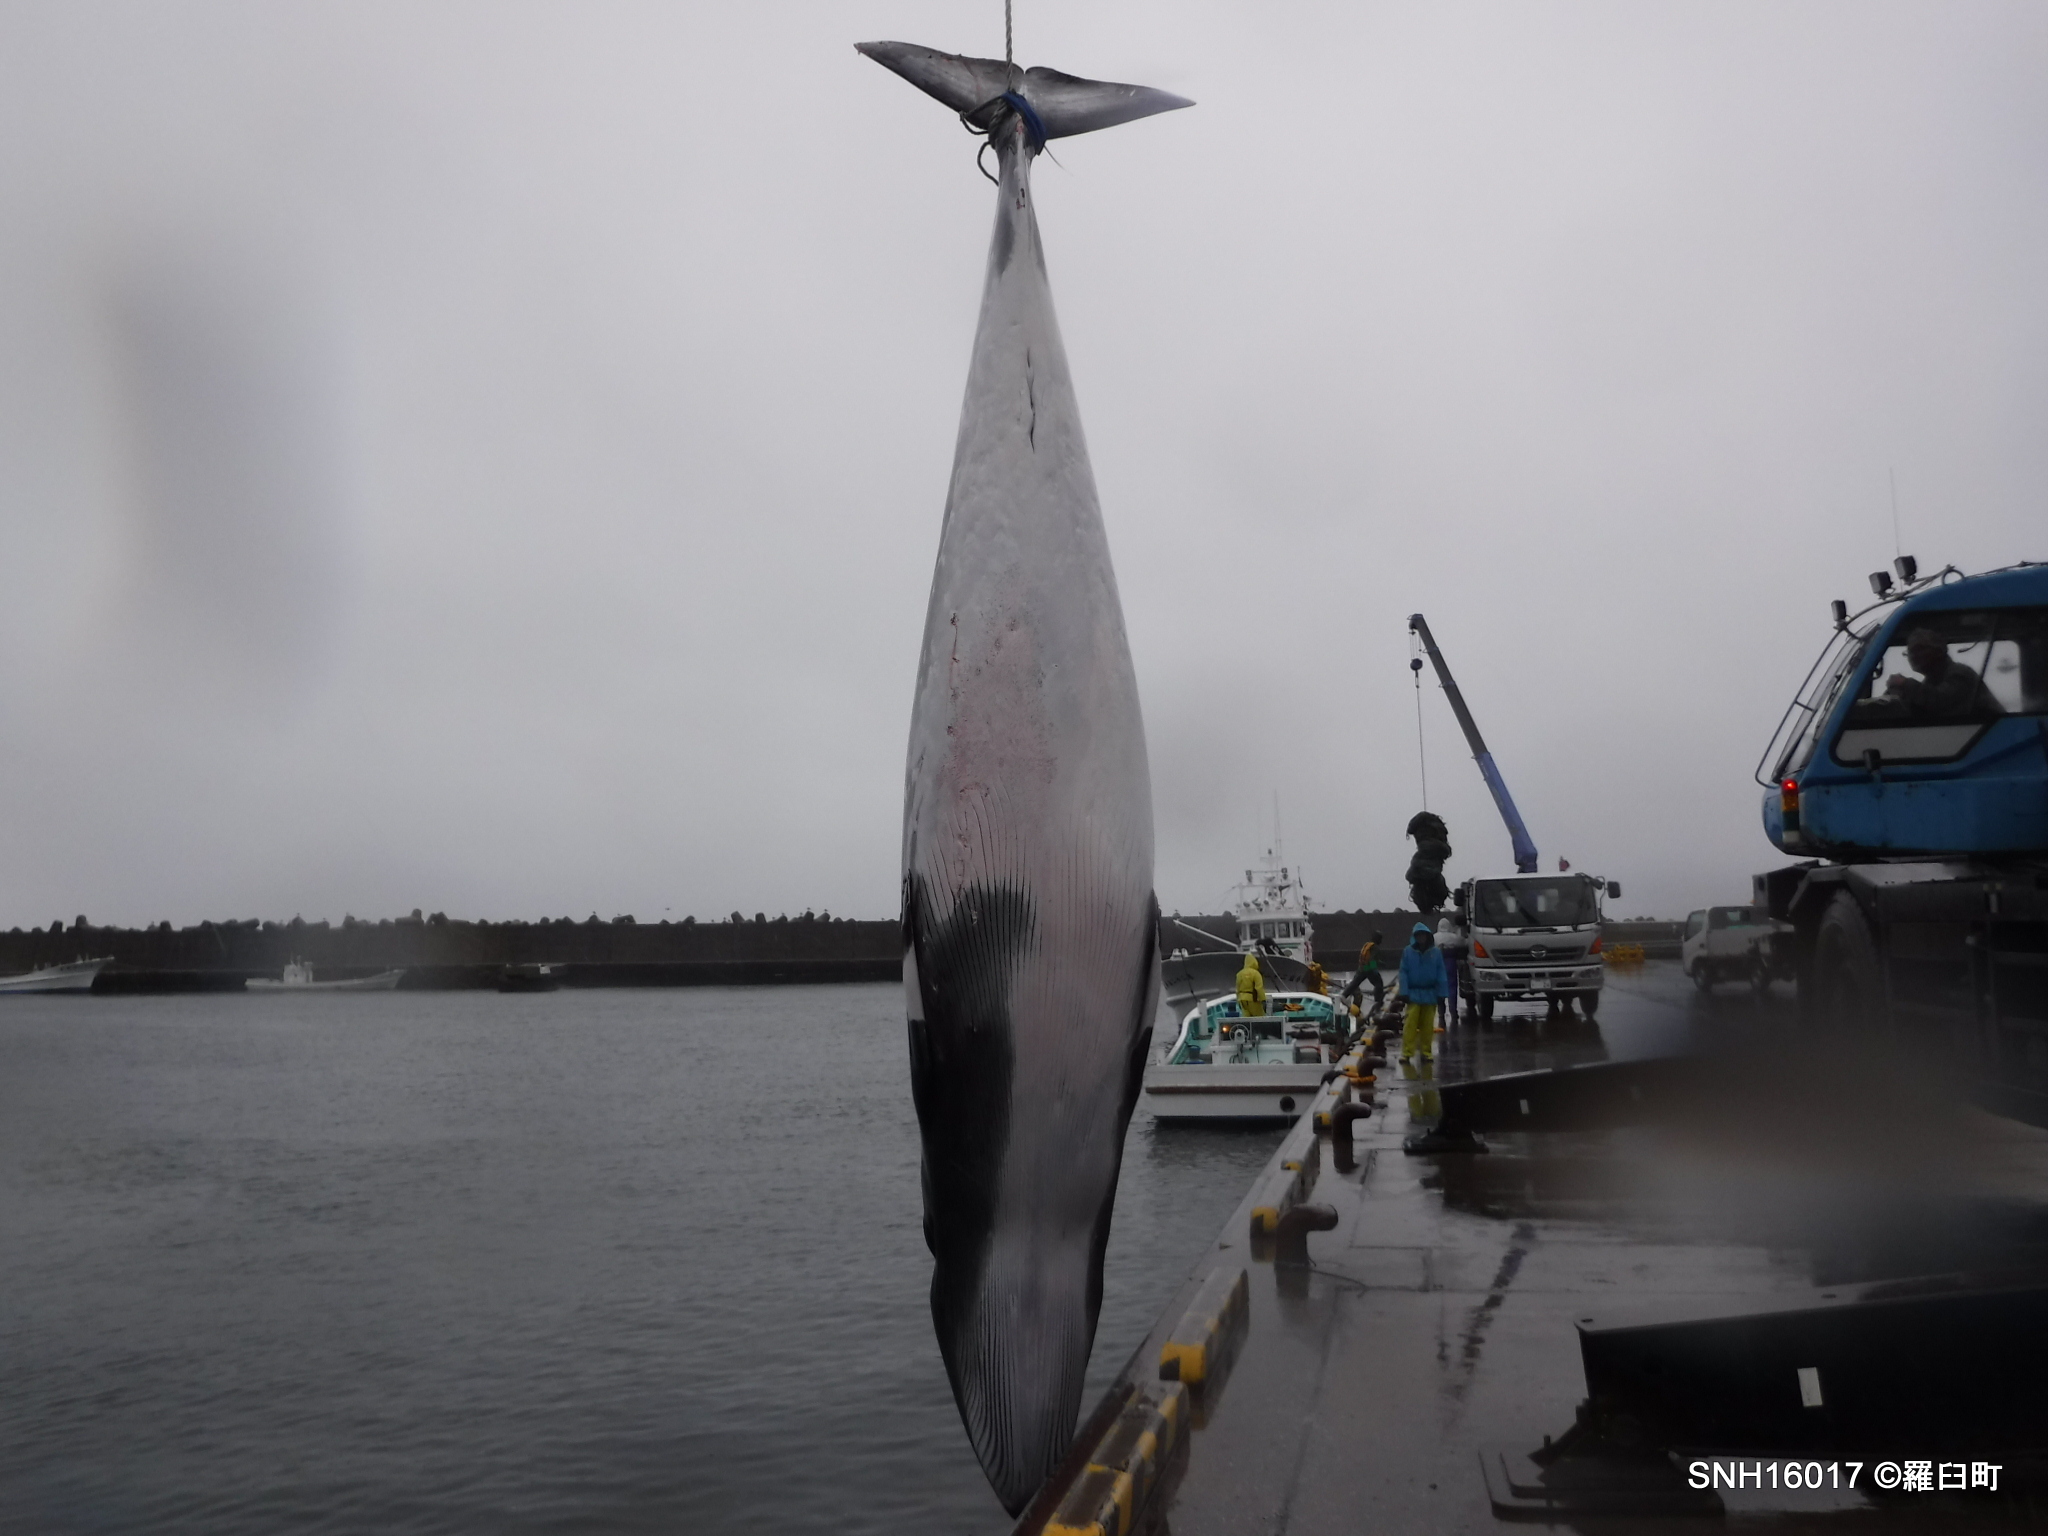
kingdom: Animalia
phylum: Chordata
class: Mammalia
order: Cetacea
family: Balaenopteridae
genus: Balaenoptera
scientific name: Balaenoptera acutorostrata
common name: Minke whale
